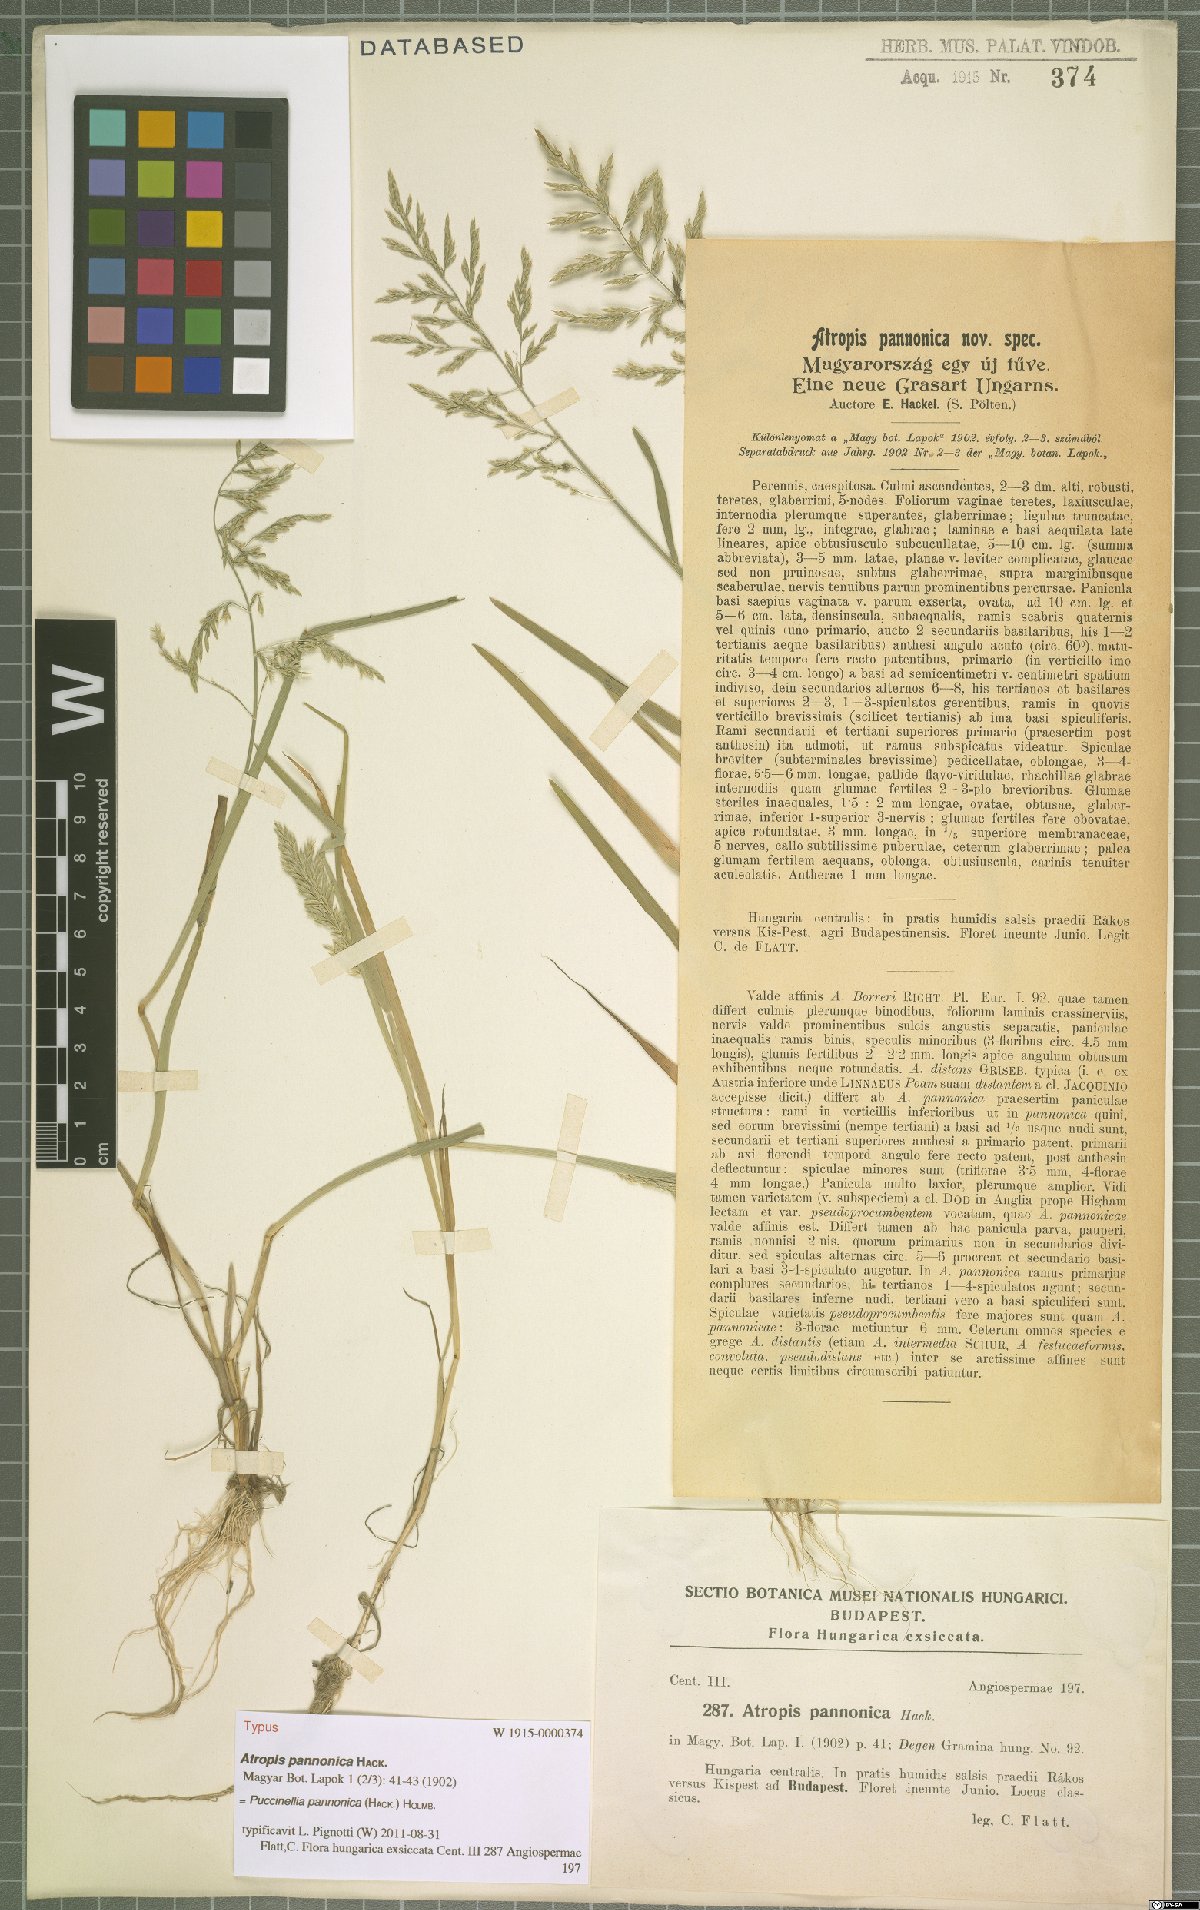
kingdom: Plantae
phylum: Tracheophyta
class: Liliopsida
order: Poales
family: Poaceae
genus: Puccinellia
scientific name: Puccinellia pannonica
